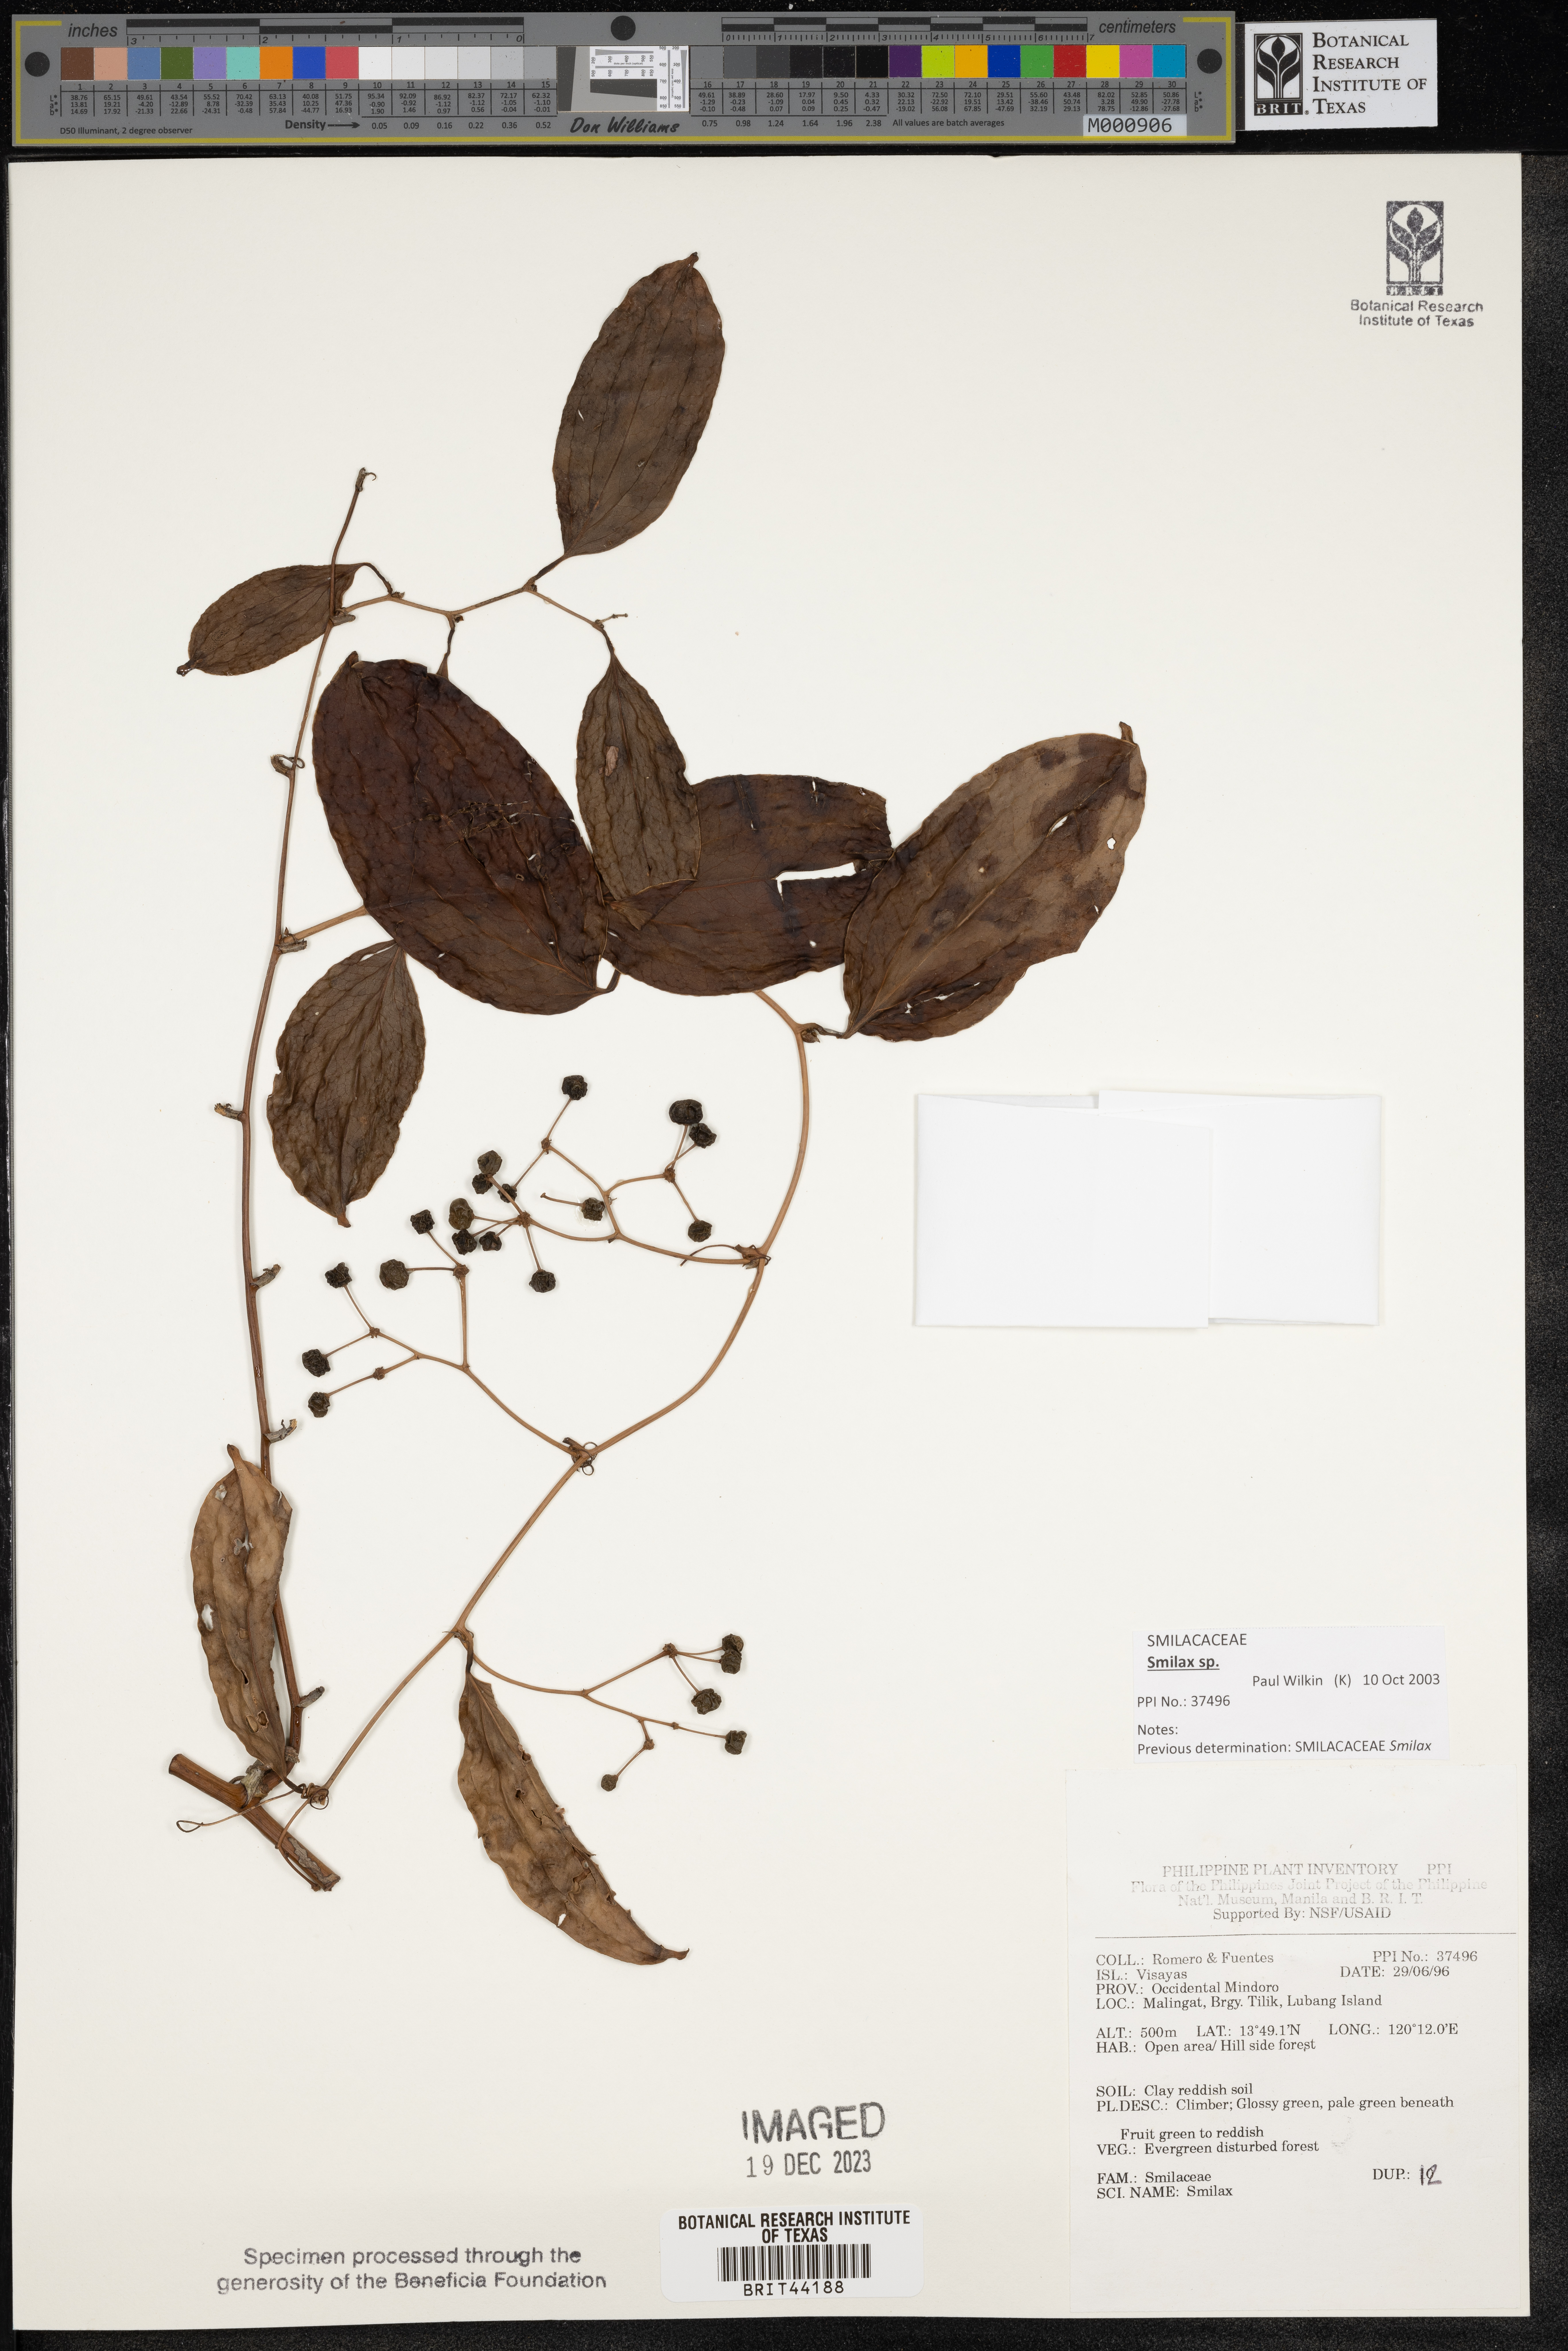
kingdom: Plantae
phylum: Tracheophyta
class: Liliopsida
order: Liliales
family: Smilacaceae
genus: Smilax
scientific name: Smilax
